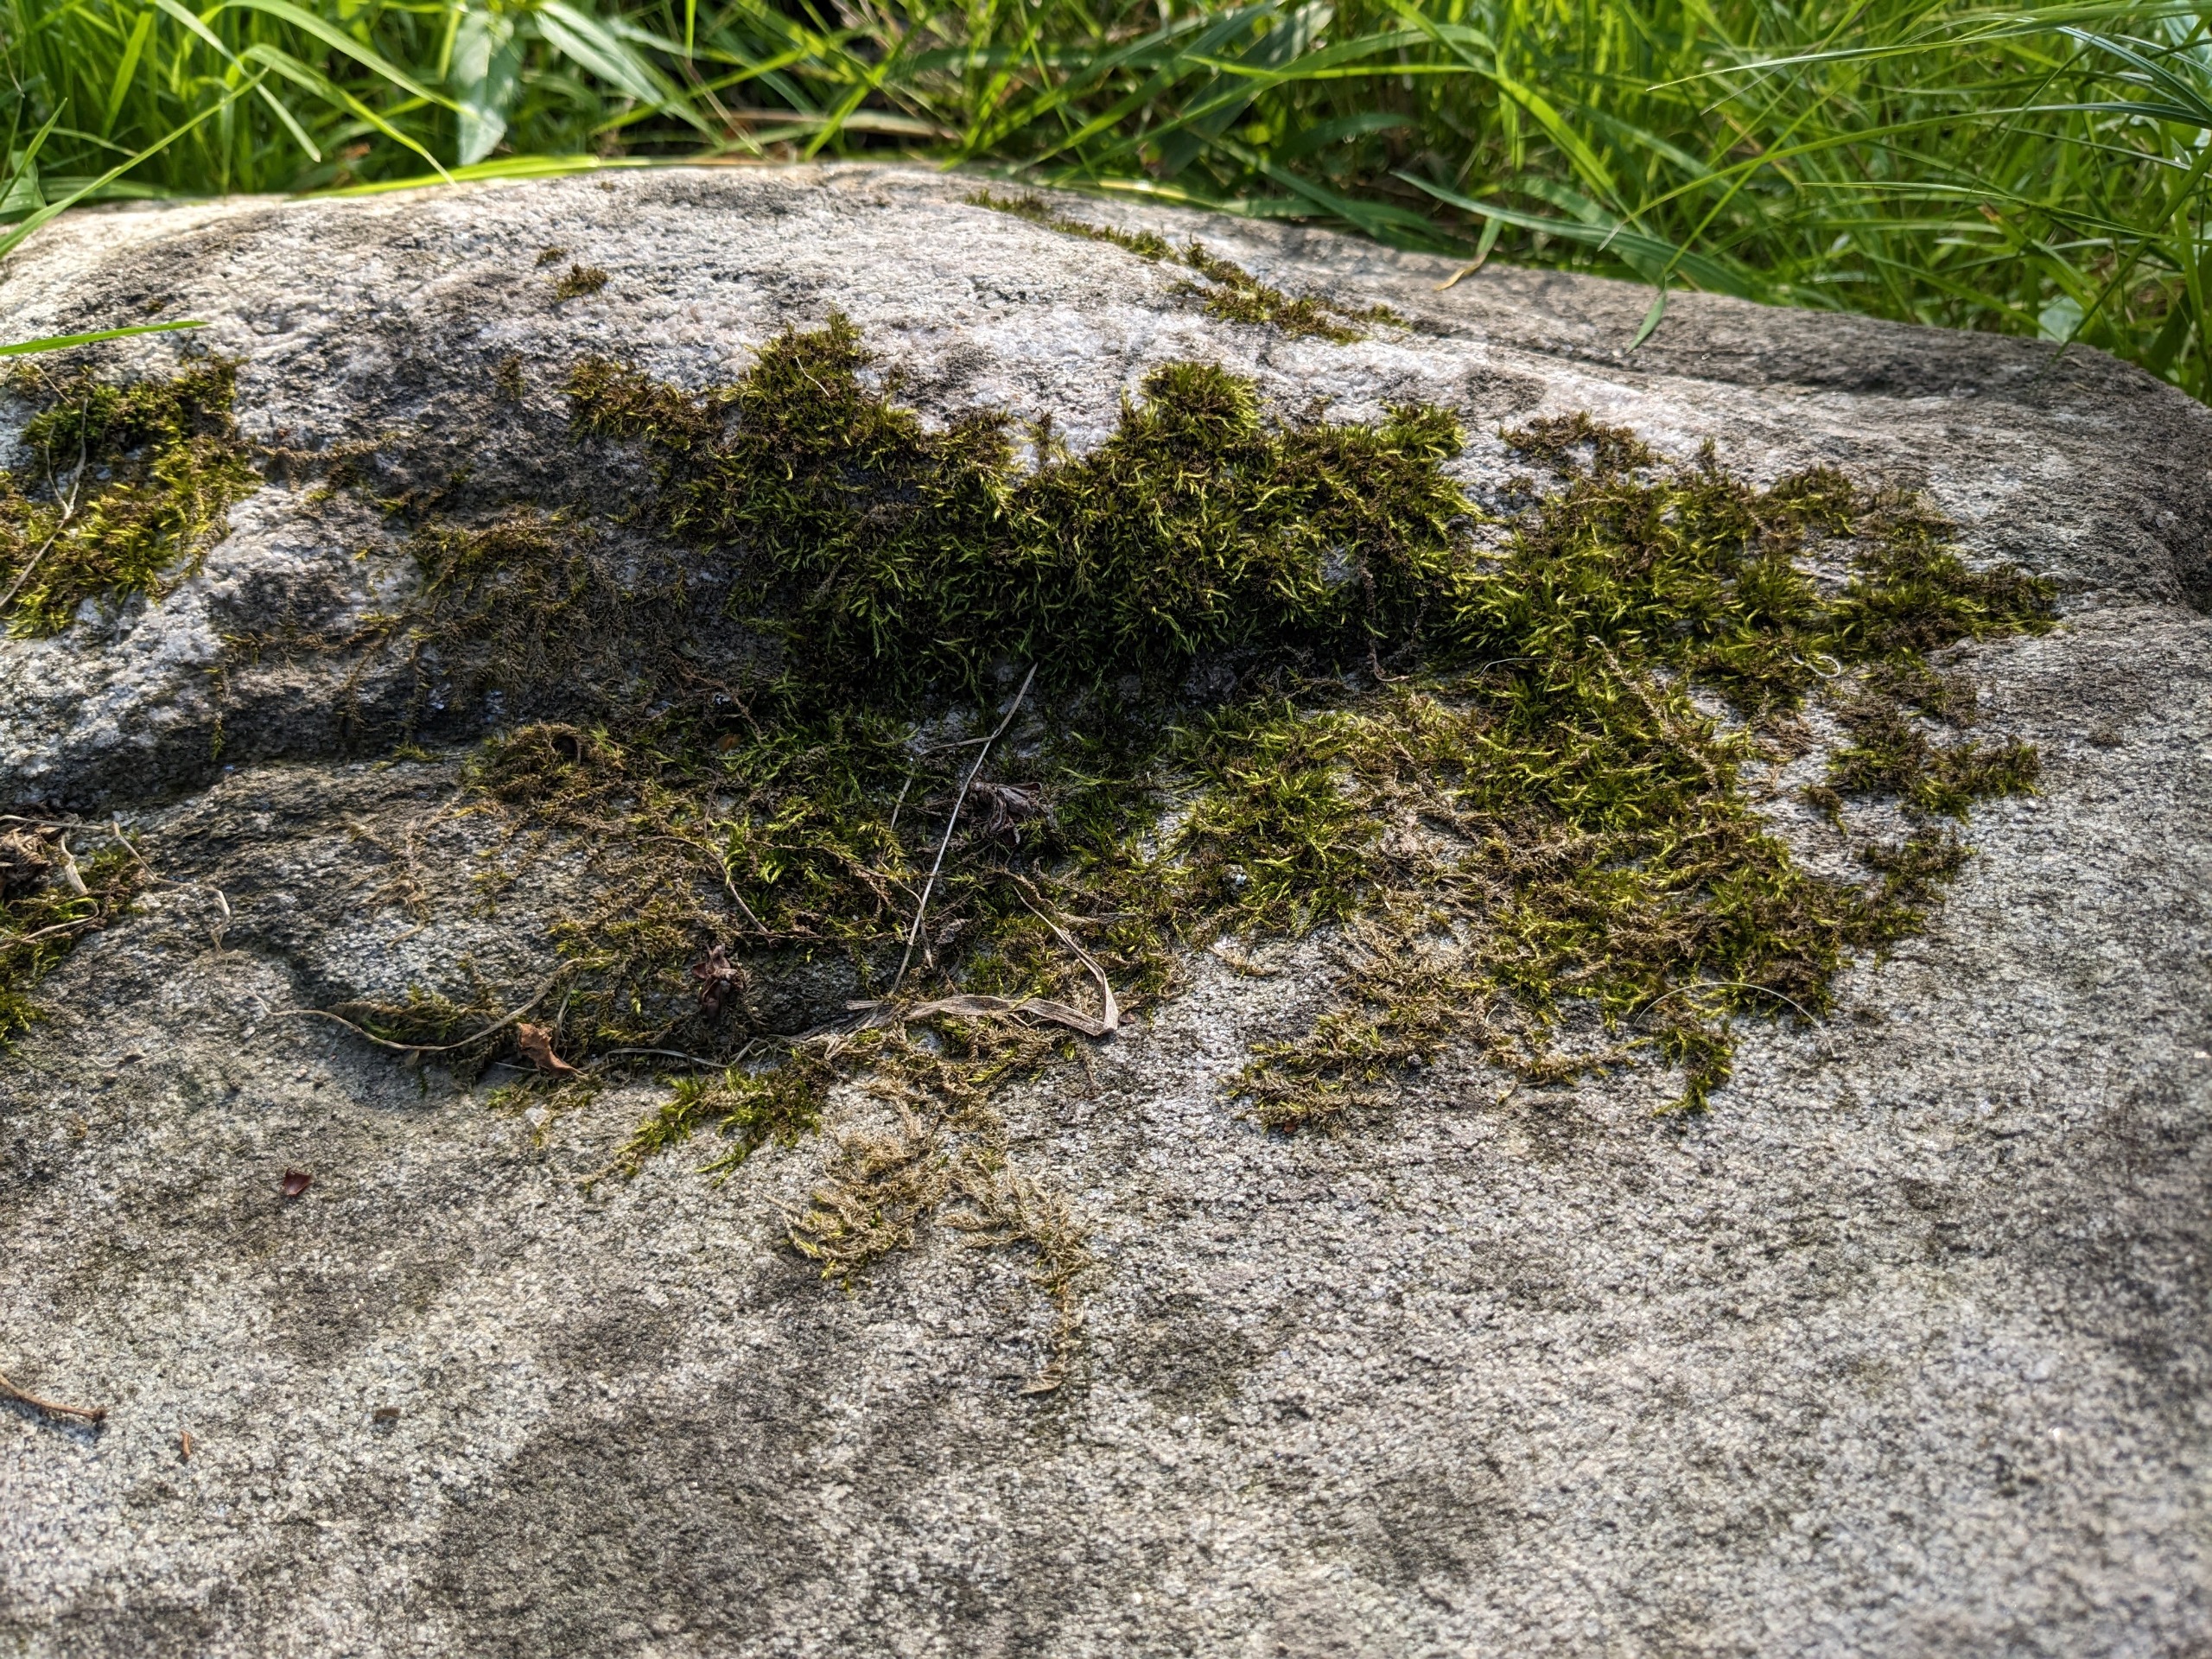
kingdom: Plantae
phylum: Bryophyta
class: Bryopsida
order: Hypnales
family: Brachytheciaceae
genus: Sciuro-hypnum
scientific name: Sciuro-hypnum populeum
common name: Park-kortkapsel
